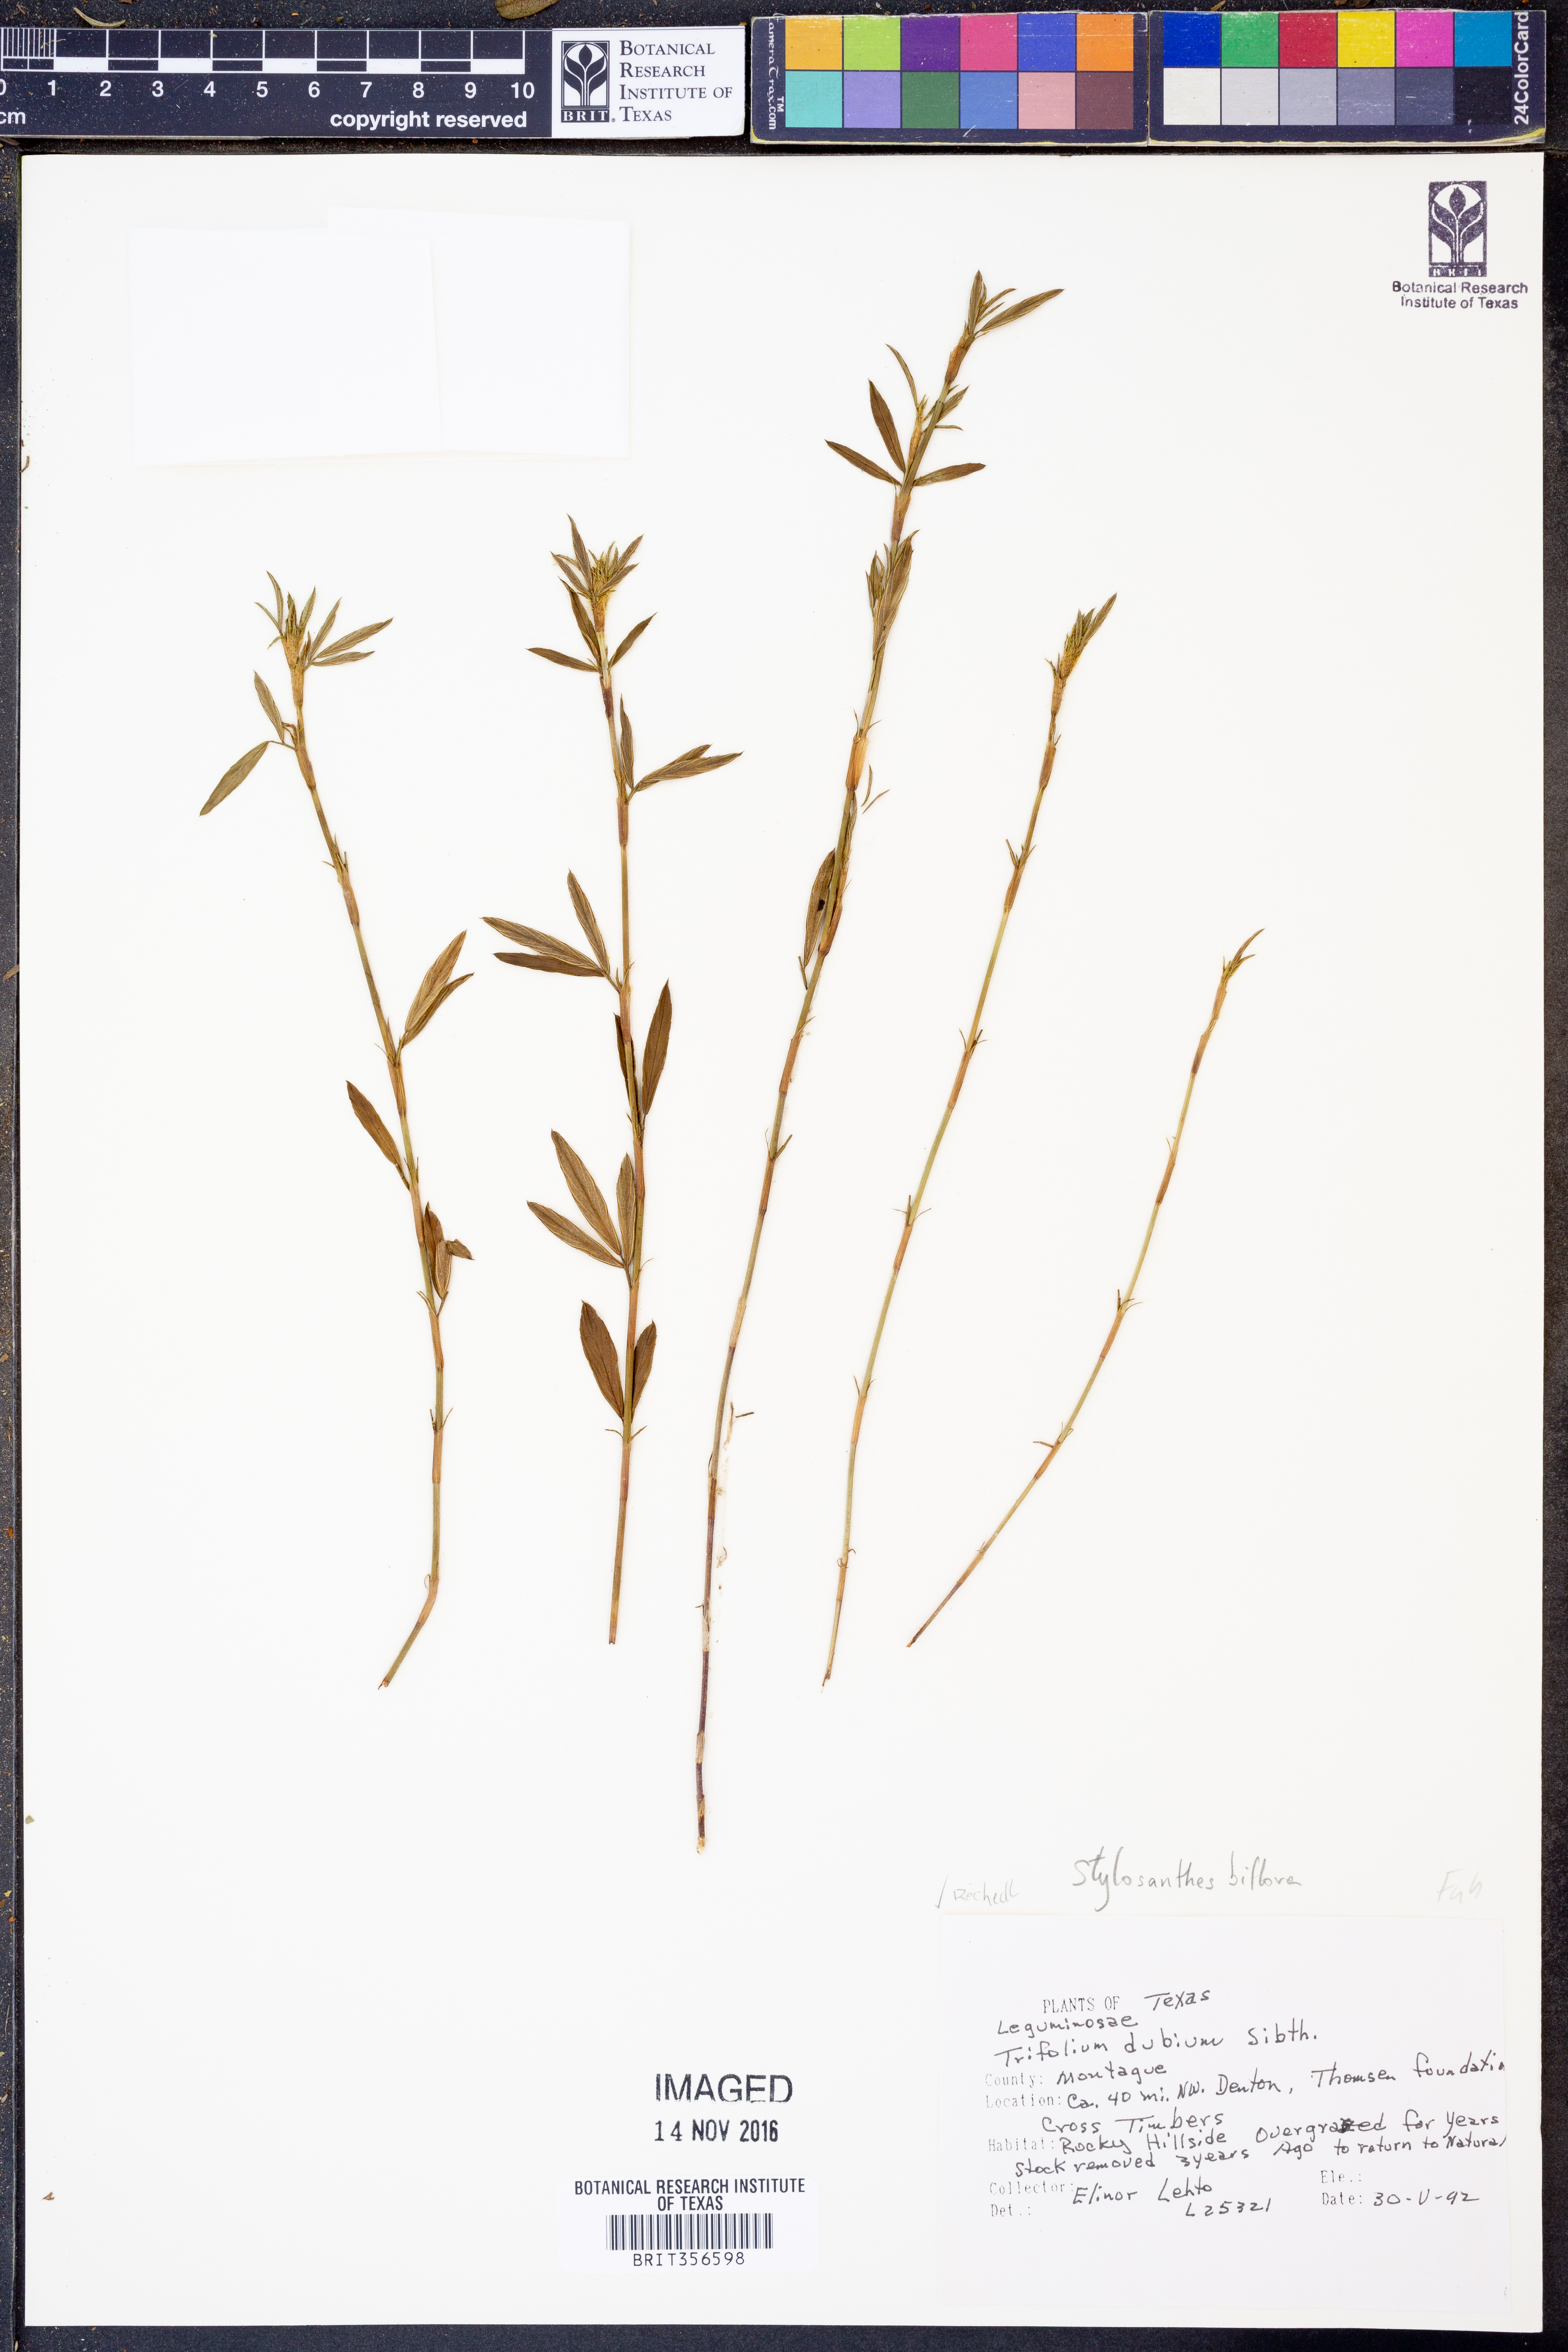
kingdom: Plantae
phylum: Tracheophyta
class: Magnoliopsida
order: Fabales
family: Fabaceae
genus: Stylosanthes
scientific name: Stylosanthes biflora
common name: Two-flower pencil-flower
